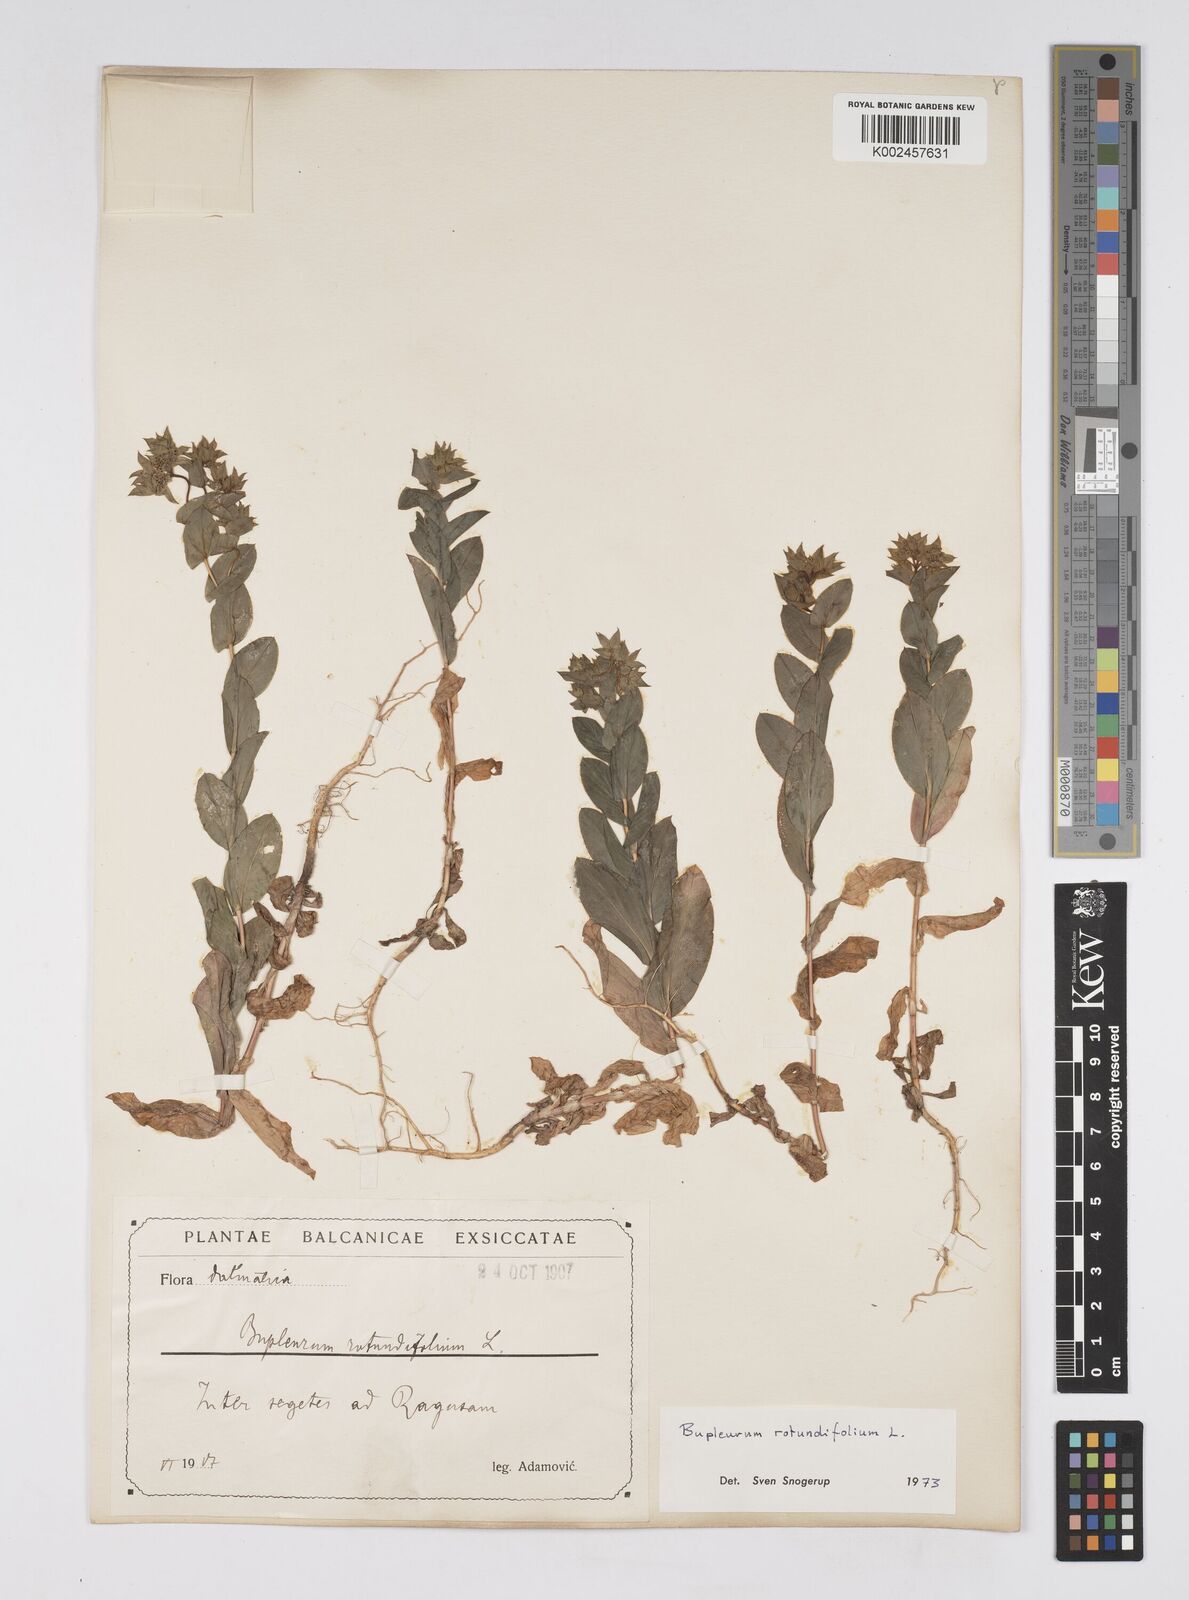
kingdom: Plantae
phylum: Tracheophyta
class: Magnoliopsida
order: Apiales
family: Apiaceae
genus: Bupleurum
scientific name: Bupleurum rotundifolium
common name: Thorow-wax
